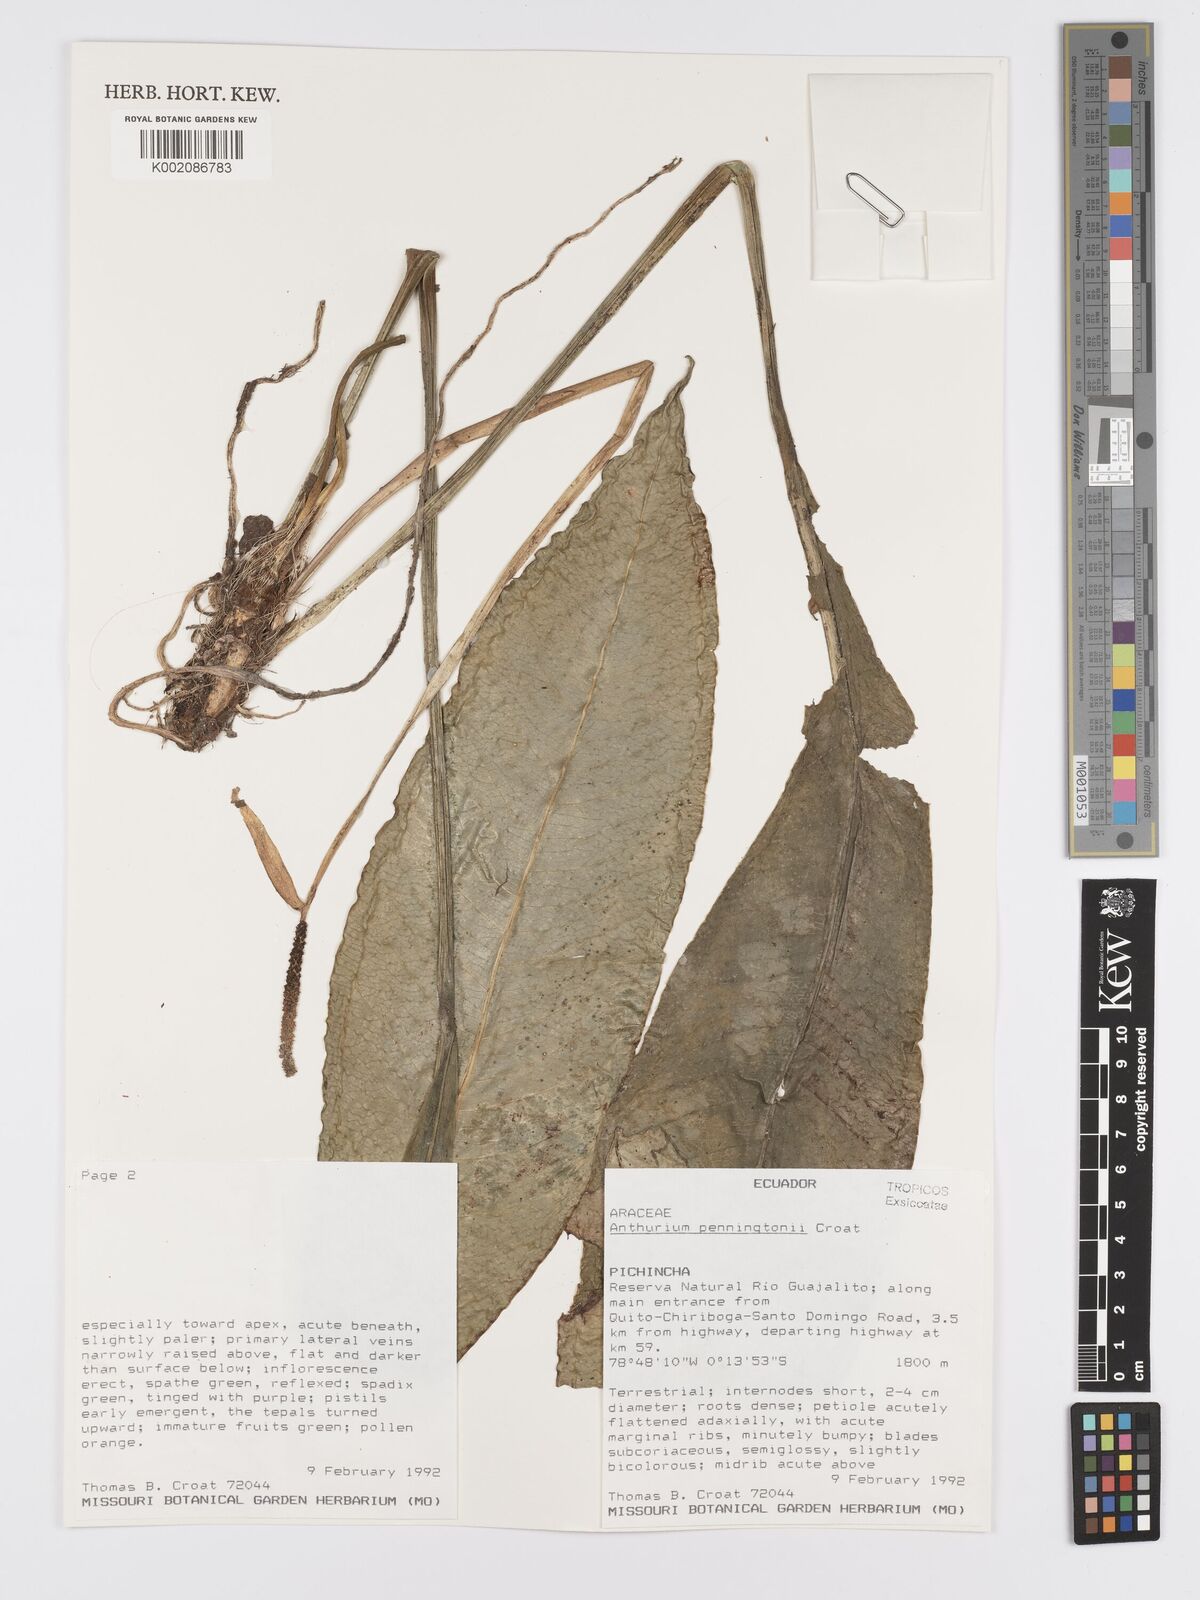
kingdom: Plantae
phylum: Tracheophyta
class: Liliopsida
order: Alismatales
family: Araceae
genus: Anthurium
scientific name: Anthurium penningtonii
